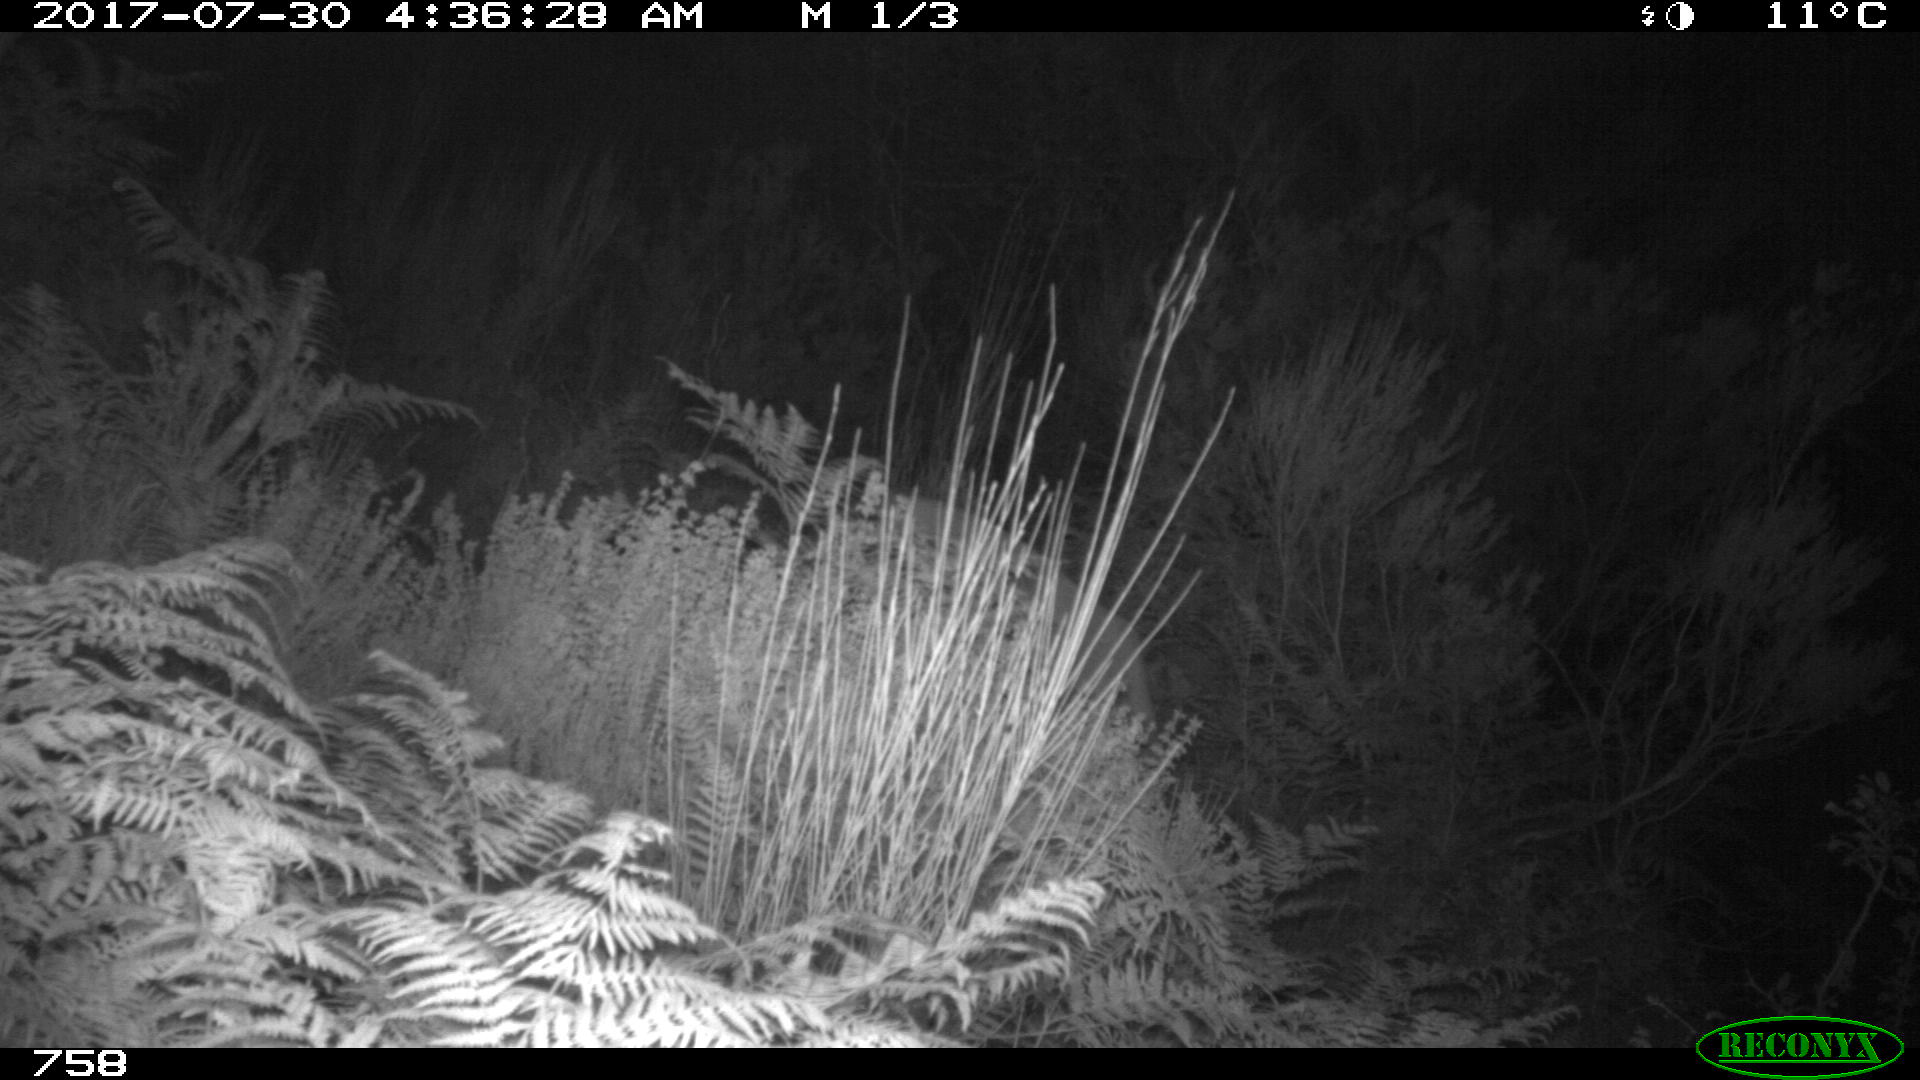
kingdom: Animalia
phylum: Chordata
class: Mammalia
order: Artiodactyla
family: Cervidae
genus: Capreolus
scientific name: Capreolus capreolus
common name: Western roe deer
